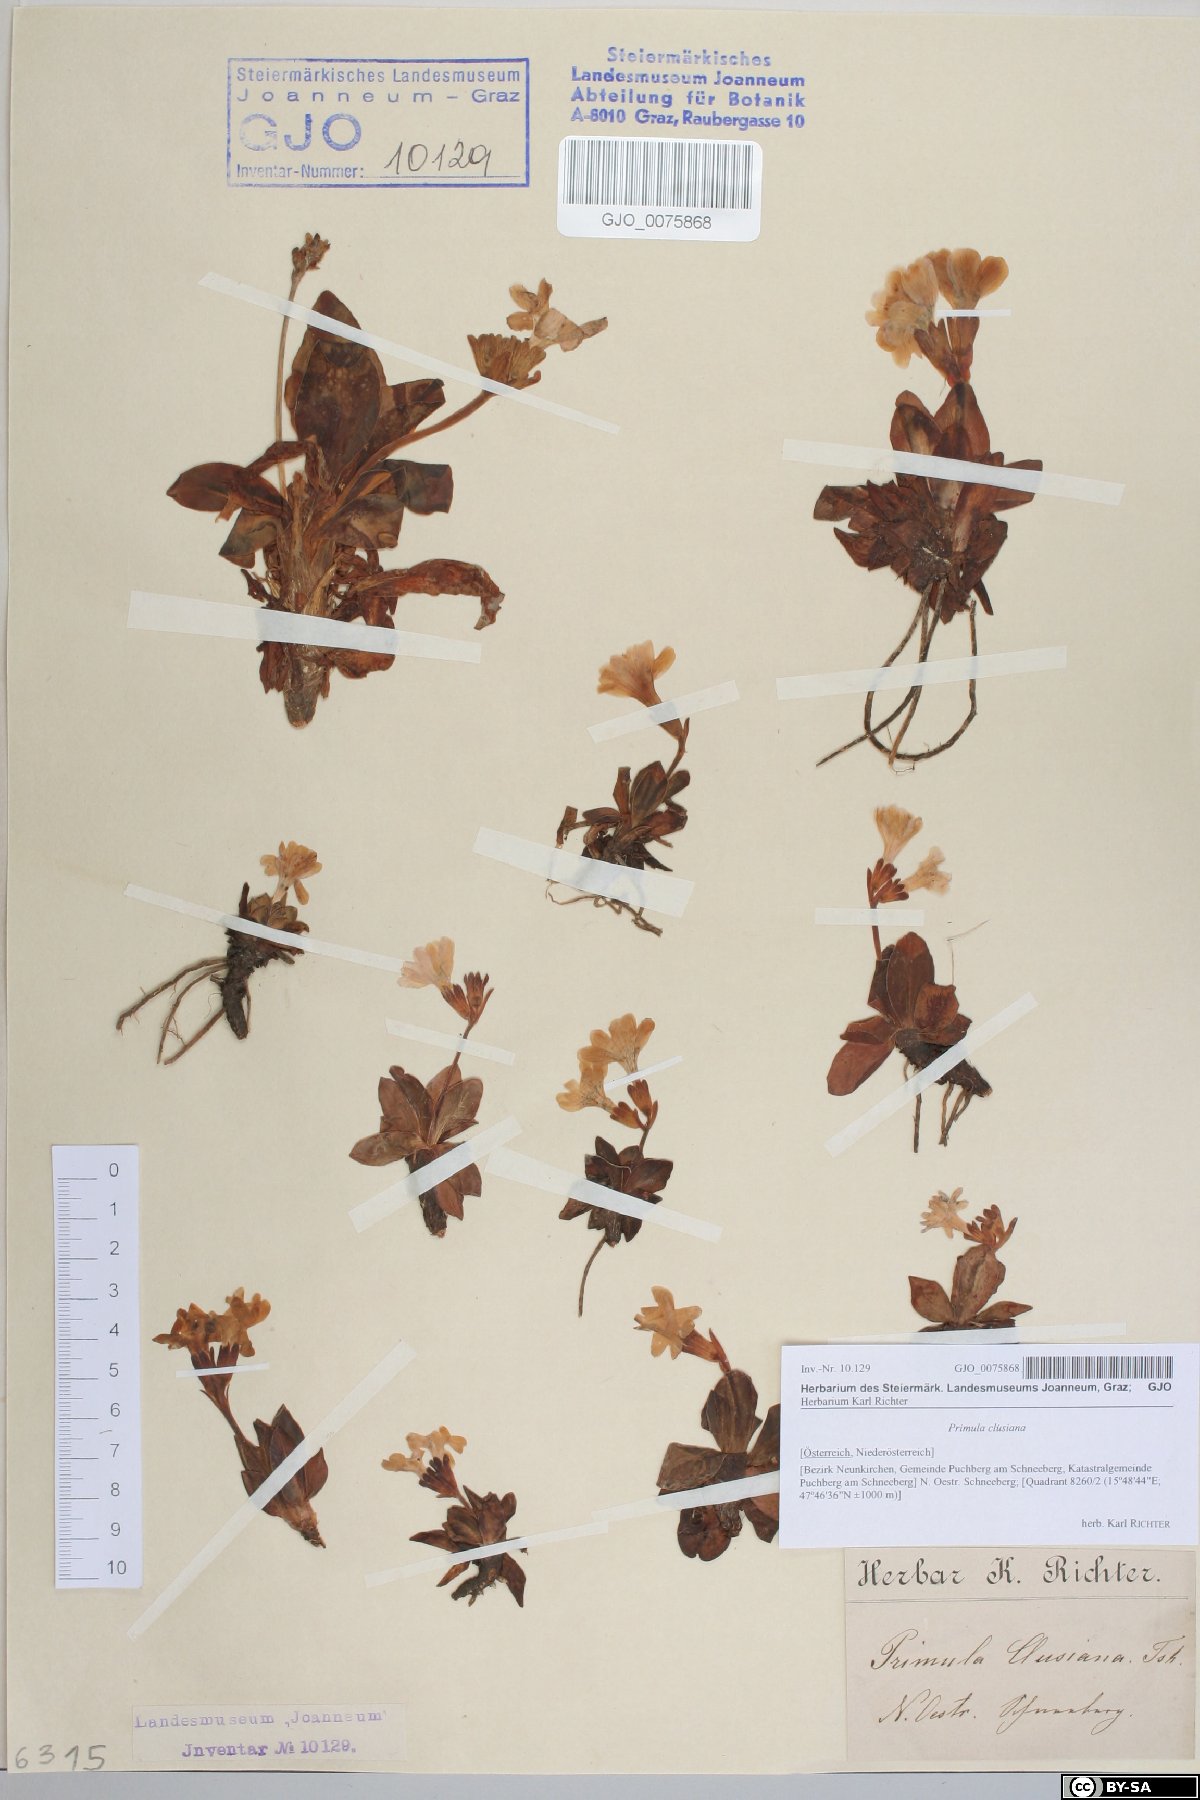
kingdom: Plantae
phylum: Tracheophyta
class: Magnoliopsida
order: Ericales
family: Primulaceae
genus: Primula
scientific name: Primula clusiana
